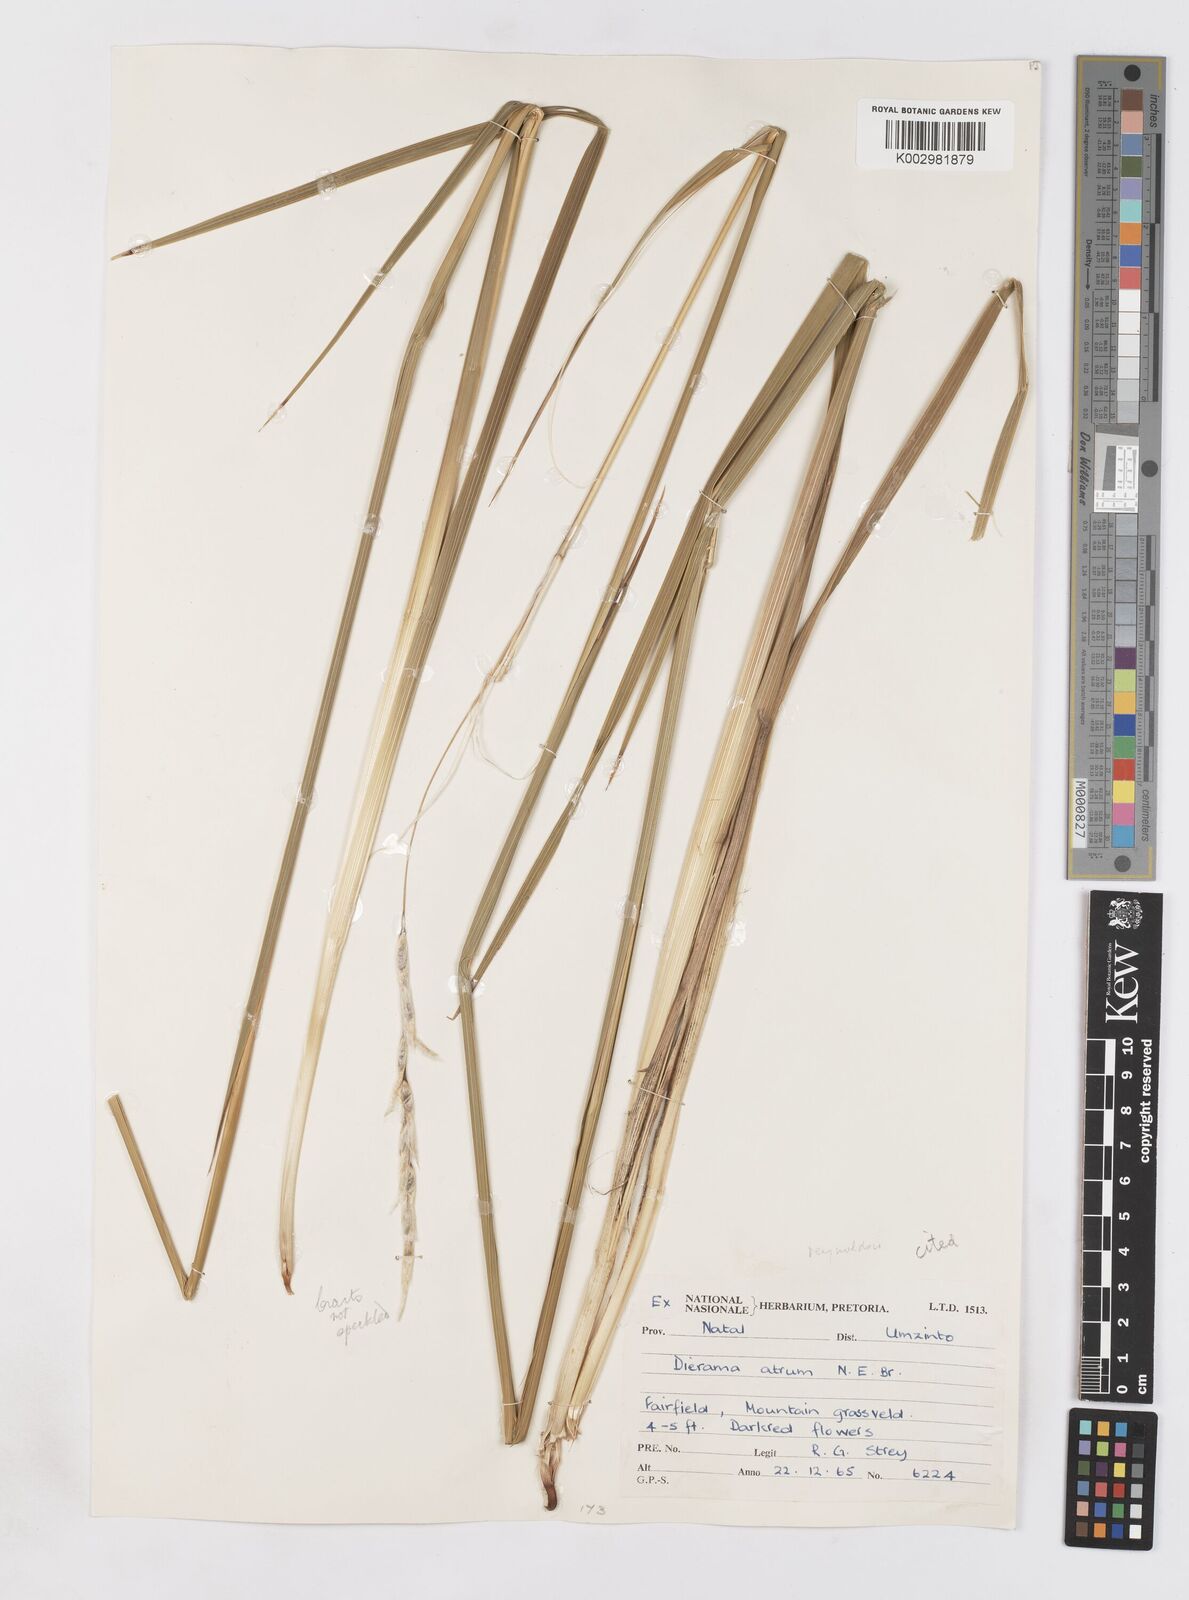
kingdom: Plantae
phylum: Tracheophyta
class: Liliopsida
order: Asparagales
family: Iridaceae
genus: Dierama
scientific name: Dierama reynoldsii
